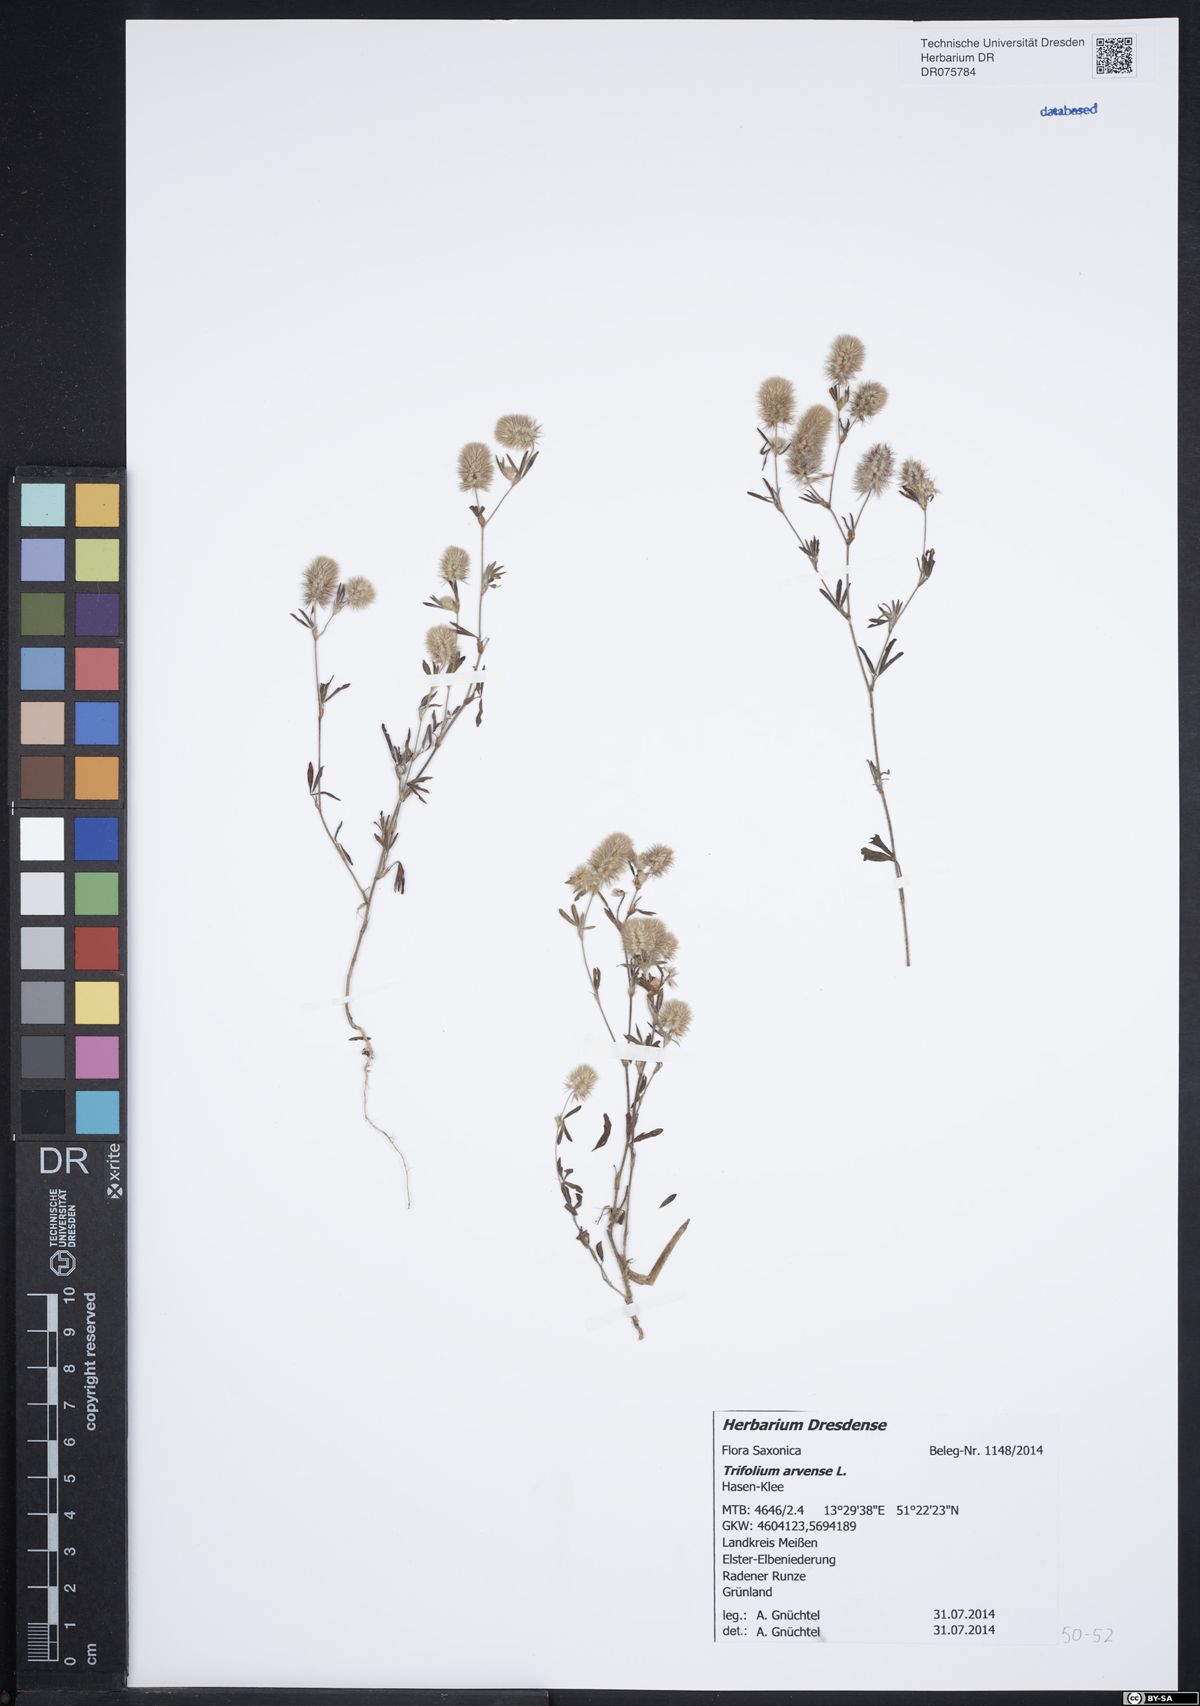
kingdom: Plantae
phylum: Tracheophyta
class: Magnoliopsida
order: Fabales
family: Fabaceae
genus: Trifolium
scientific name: Trifolium arvense
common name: Hare's-foot clover
